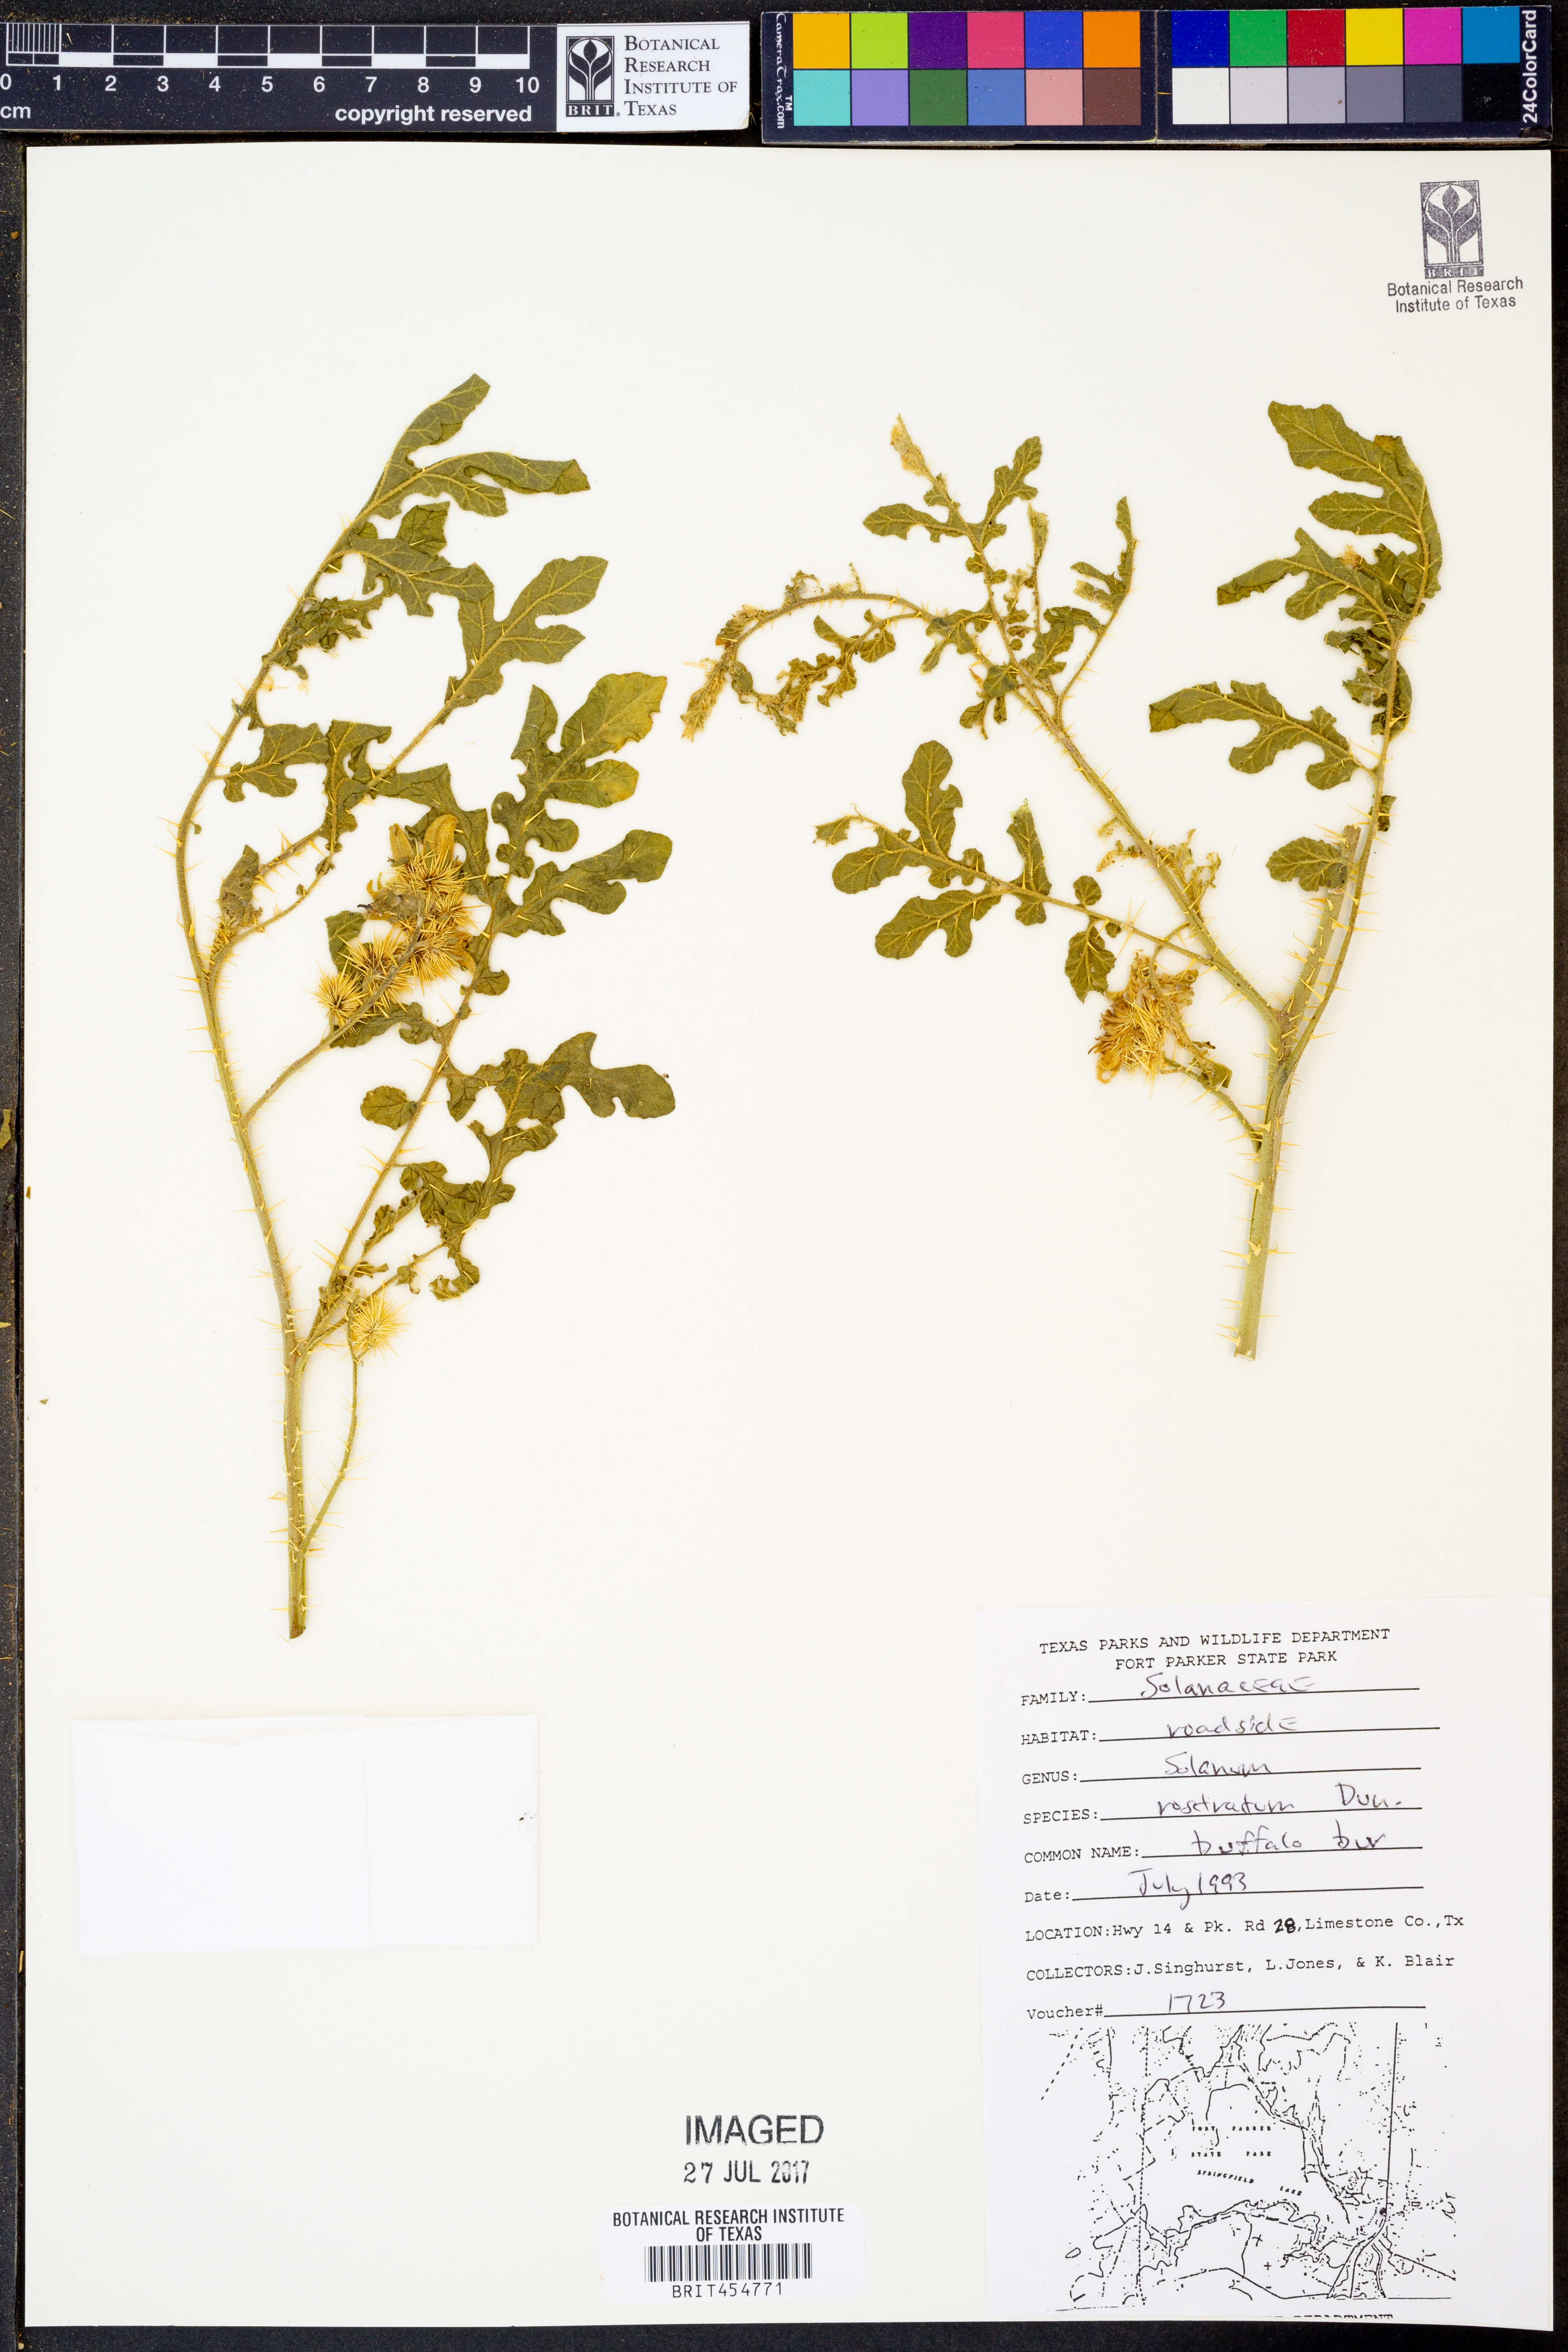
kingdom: Plantae
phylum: Tracheophyta
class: Magnoliopsida
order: Solanales
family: Solanaceae
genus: Solanum
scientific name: Solanum angustifolium
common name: Buffalobur nightshade
